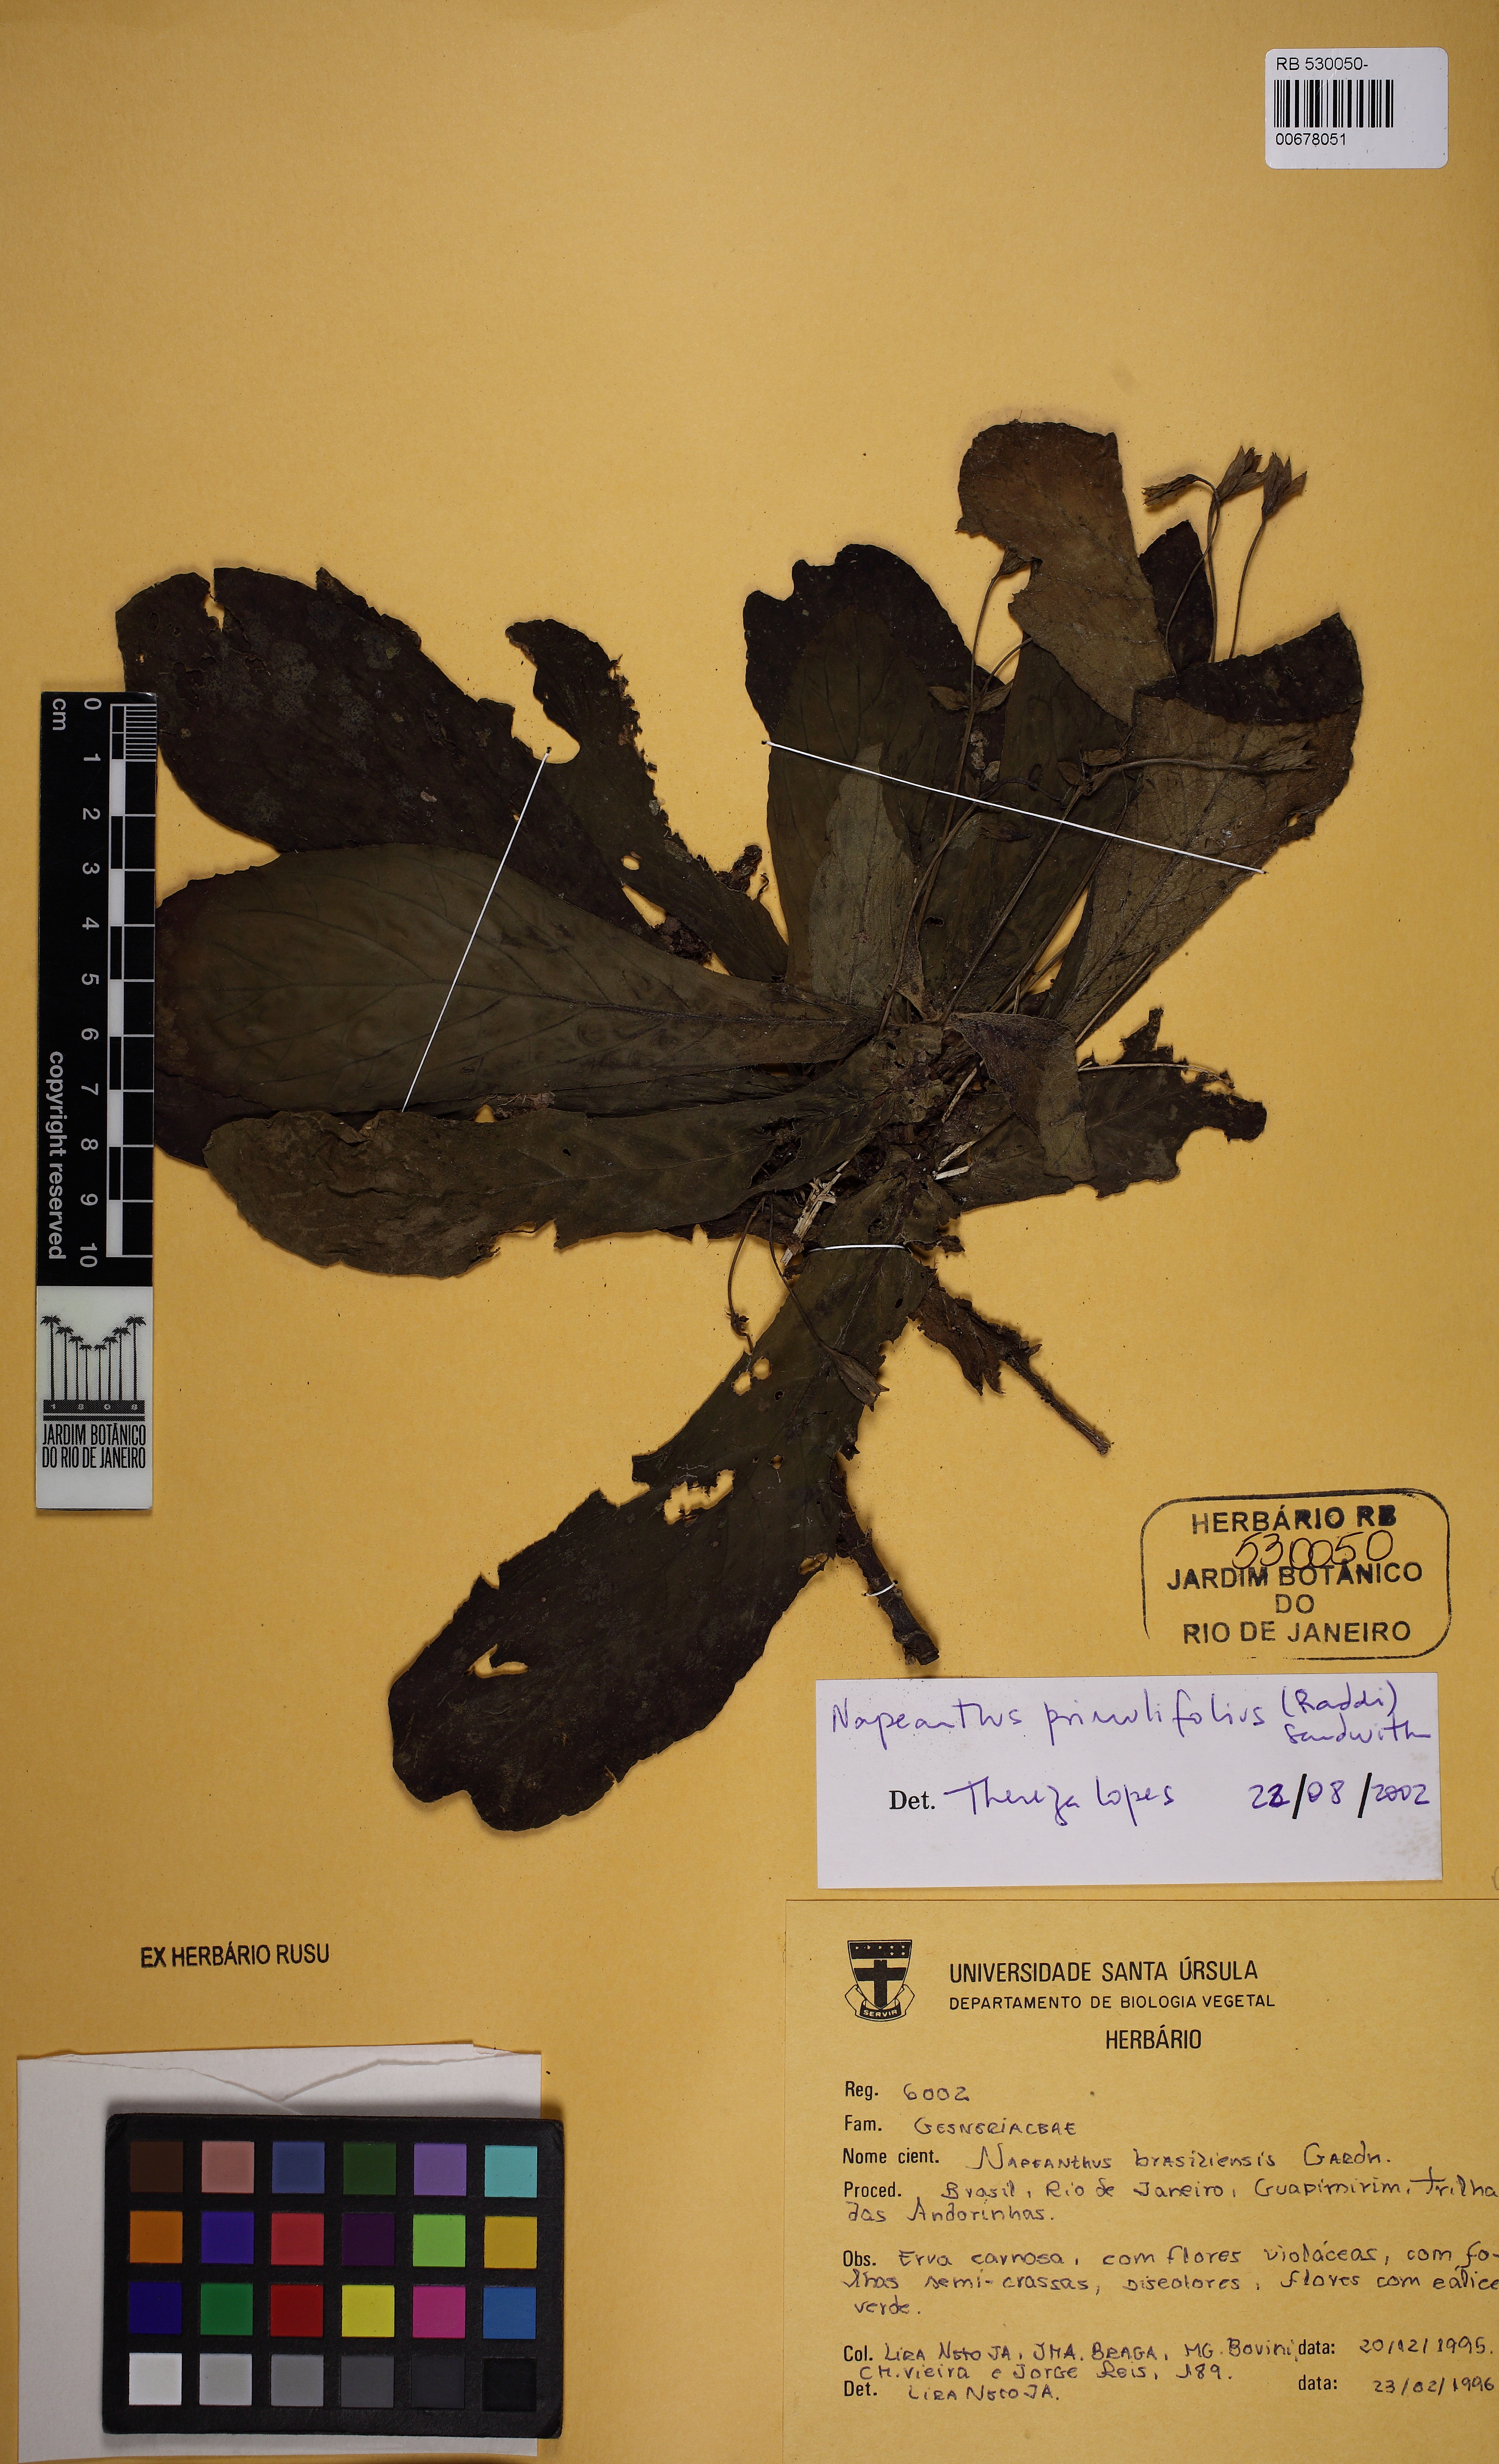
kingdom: Plantae
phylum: Tracheophyta
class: Magnoliopsida
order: Lamiales
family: Gesneriaceae
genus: Napeanthus
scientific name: Napeanthus primulifolius
